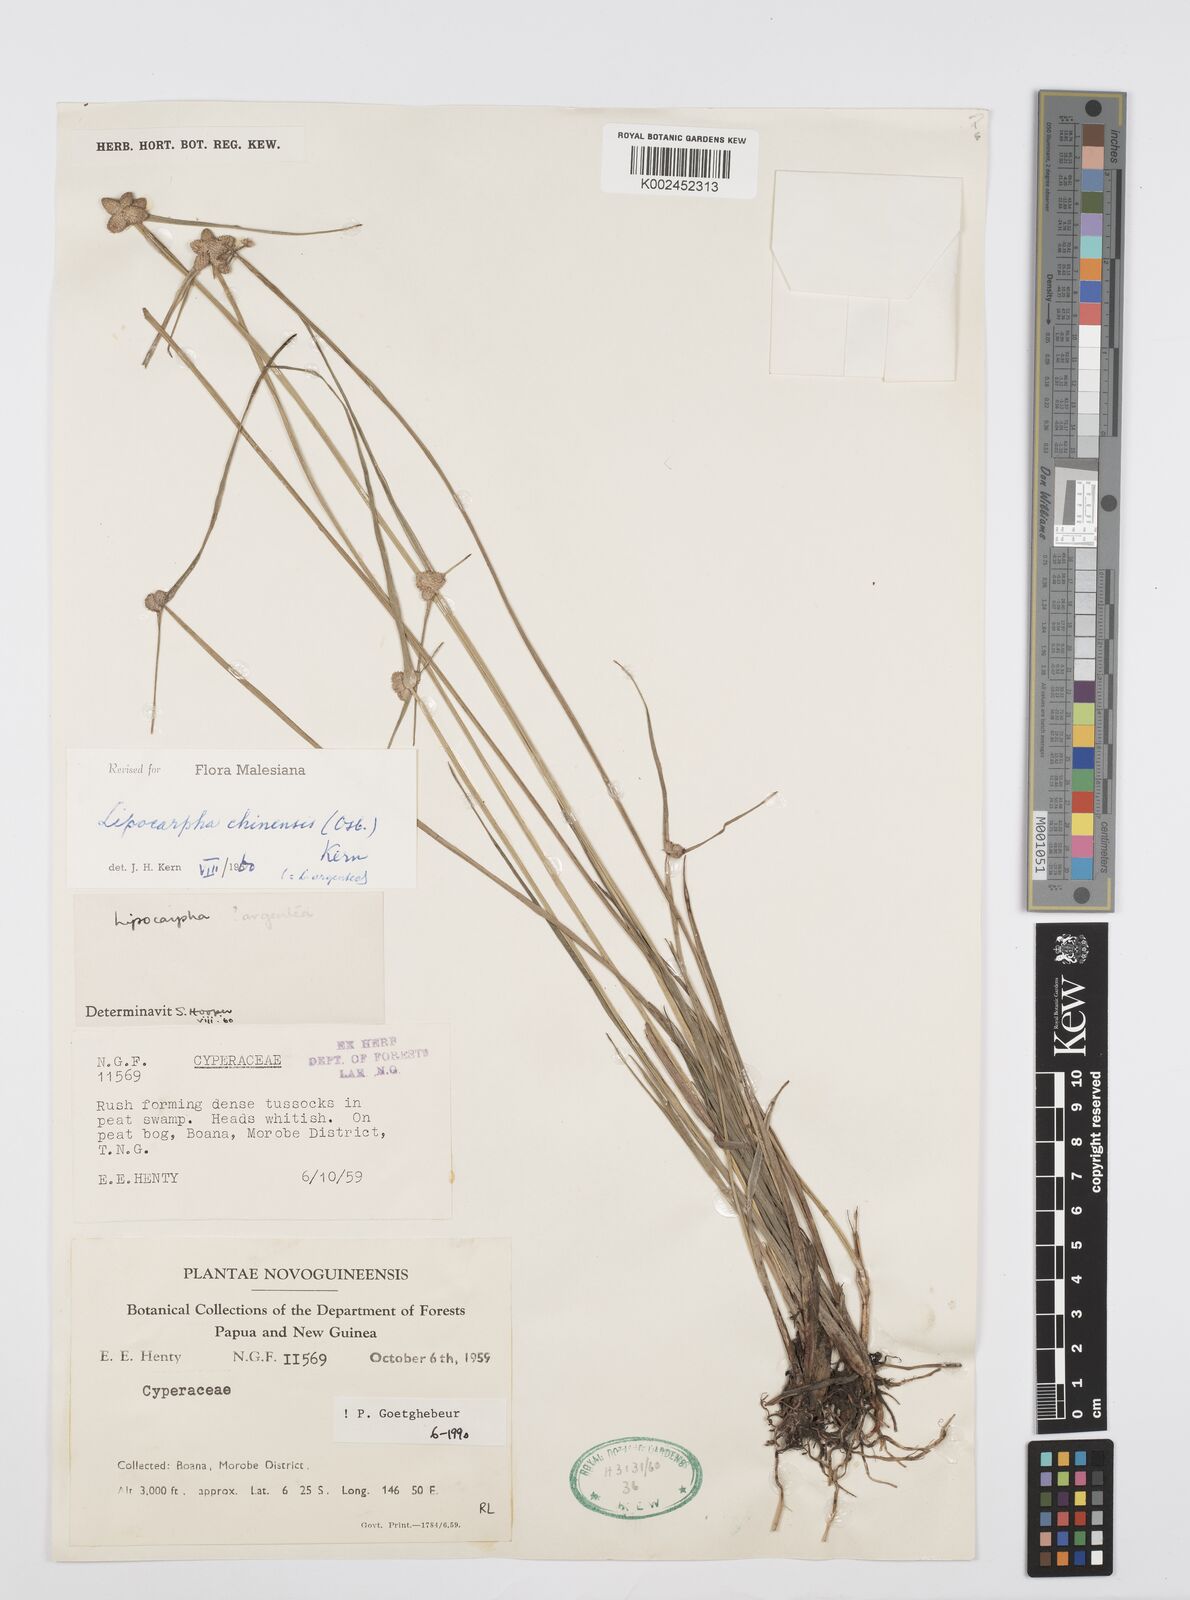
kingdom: Plantae
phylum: Tracheophyta
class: Liliopsida
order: Poales
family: Cyperaceae
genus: Cyperus
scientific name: Cyperus
